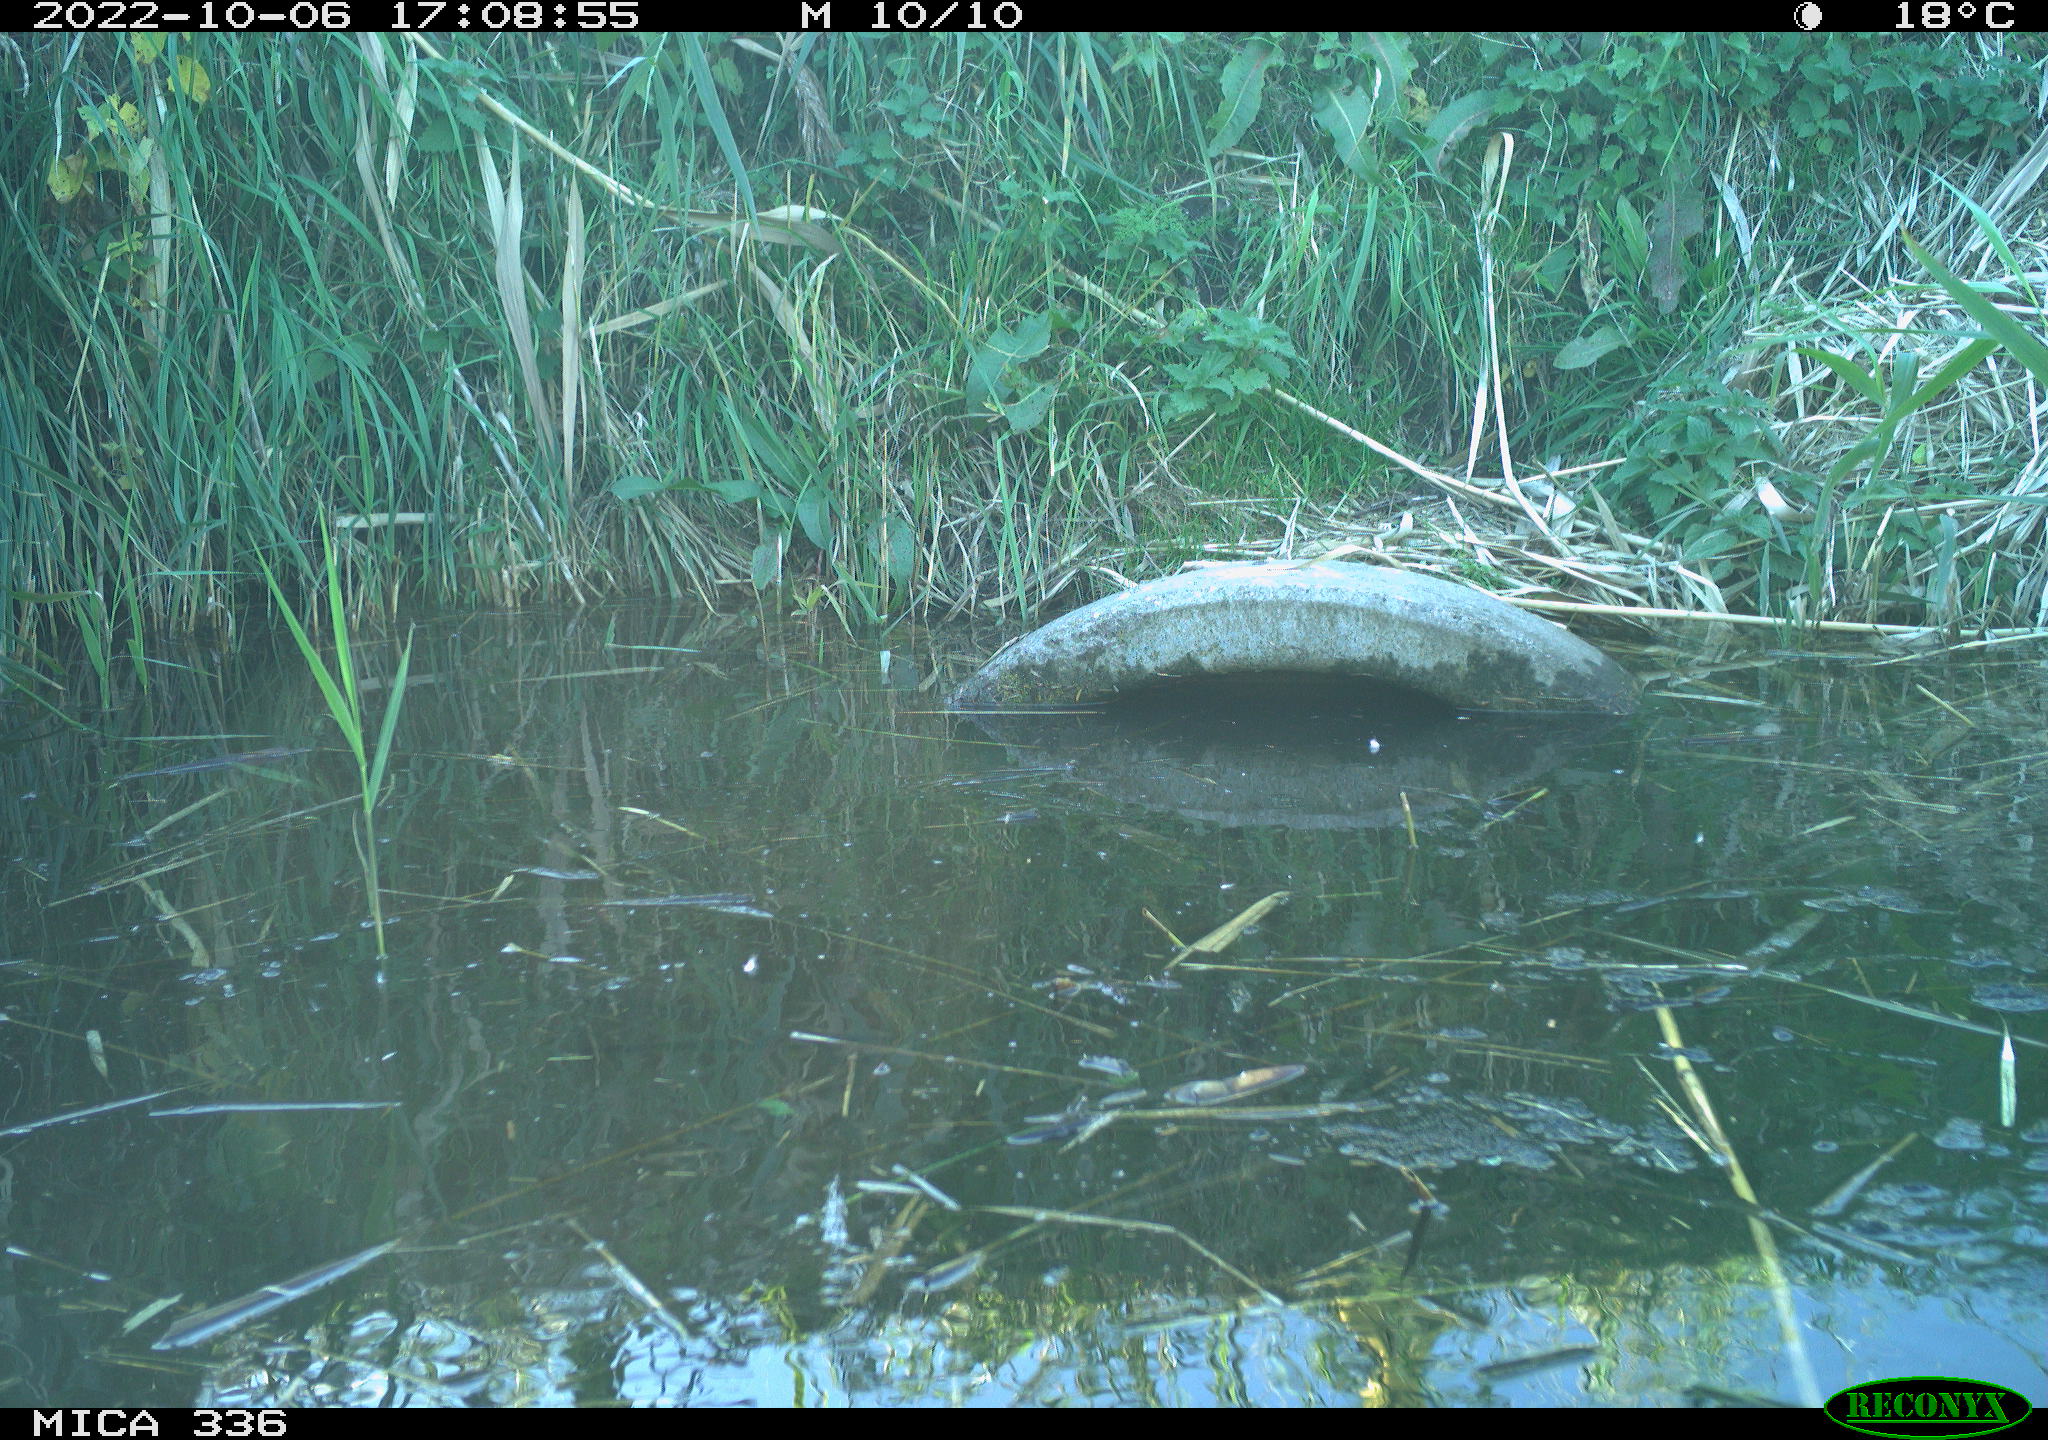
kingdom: Animalia
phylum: Chordata
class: Aves
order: Anseriformes
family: Anatidae
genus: Anas
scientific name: Anas
